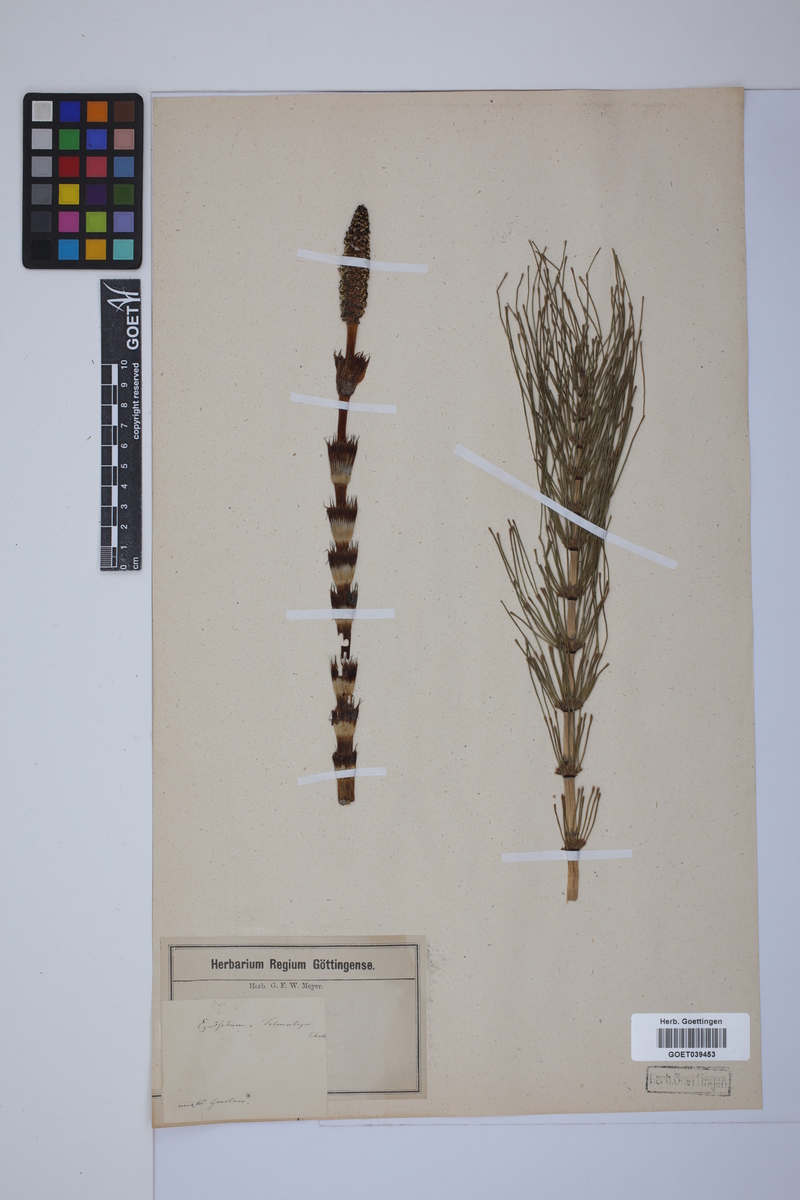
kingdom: Plantae
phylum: Tracheophyta
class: Polypodiopsida
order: Equisetales
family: Equisetaceae
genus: Equisetum
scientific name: Equisetum telmateia
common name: Great horsetail
